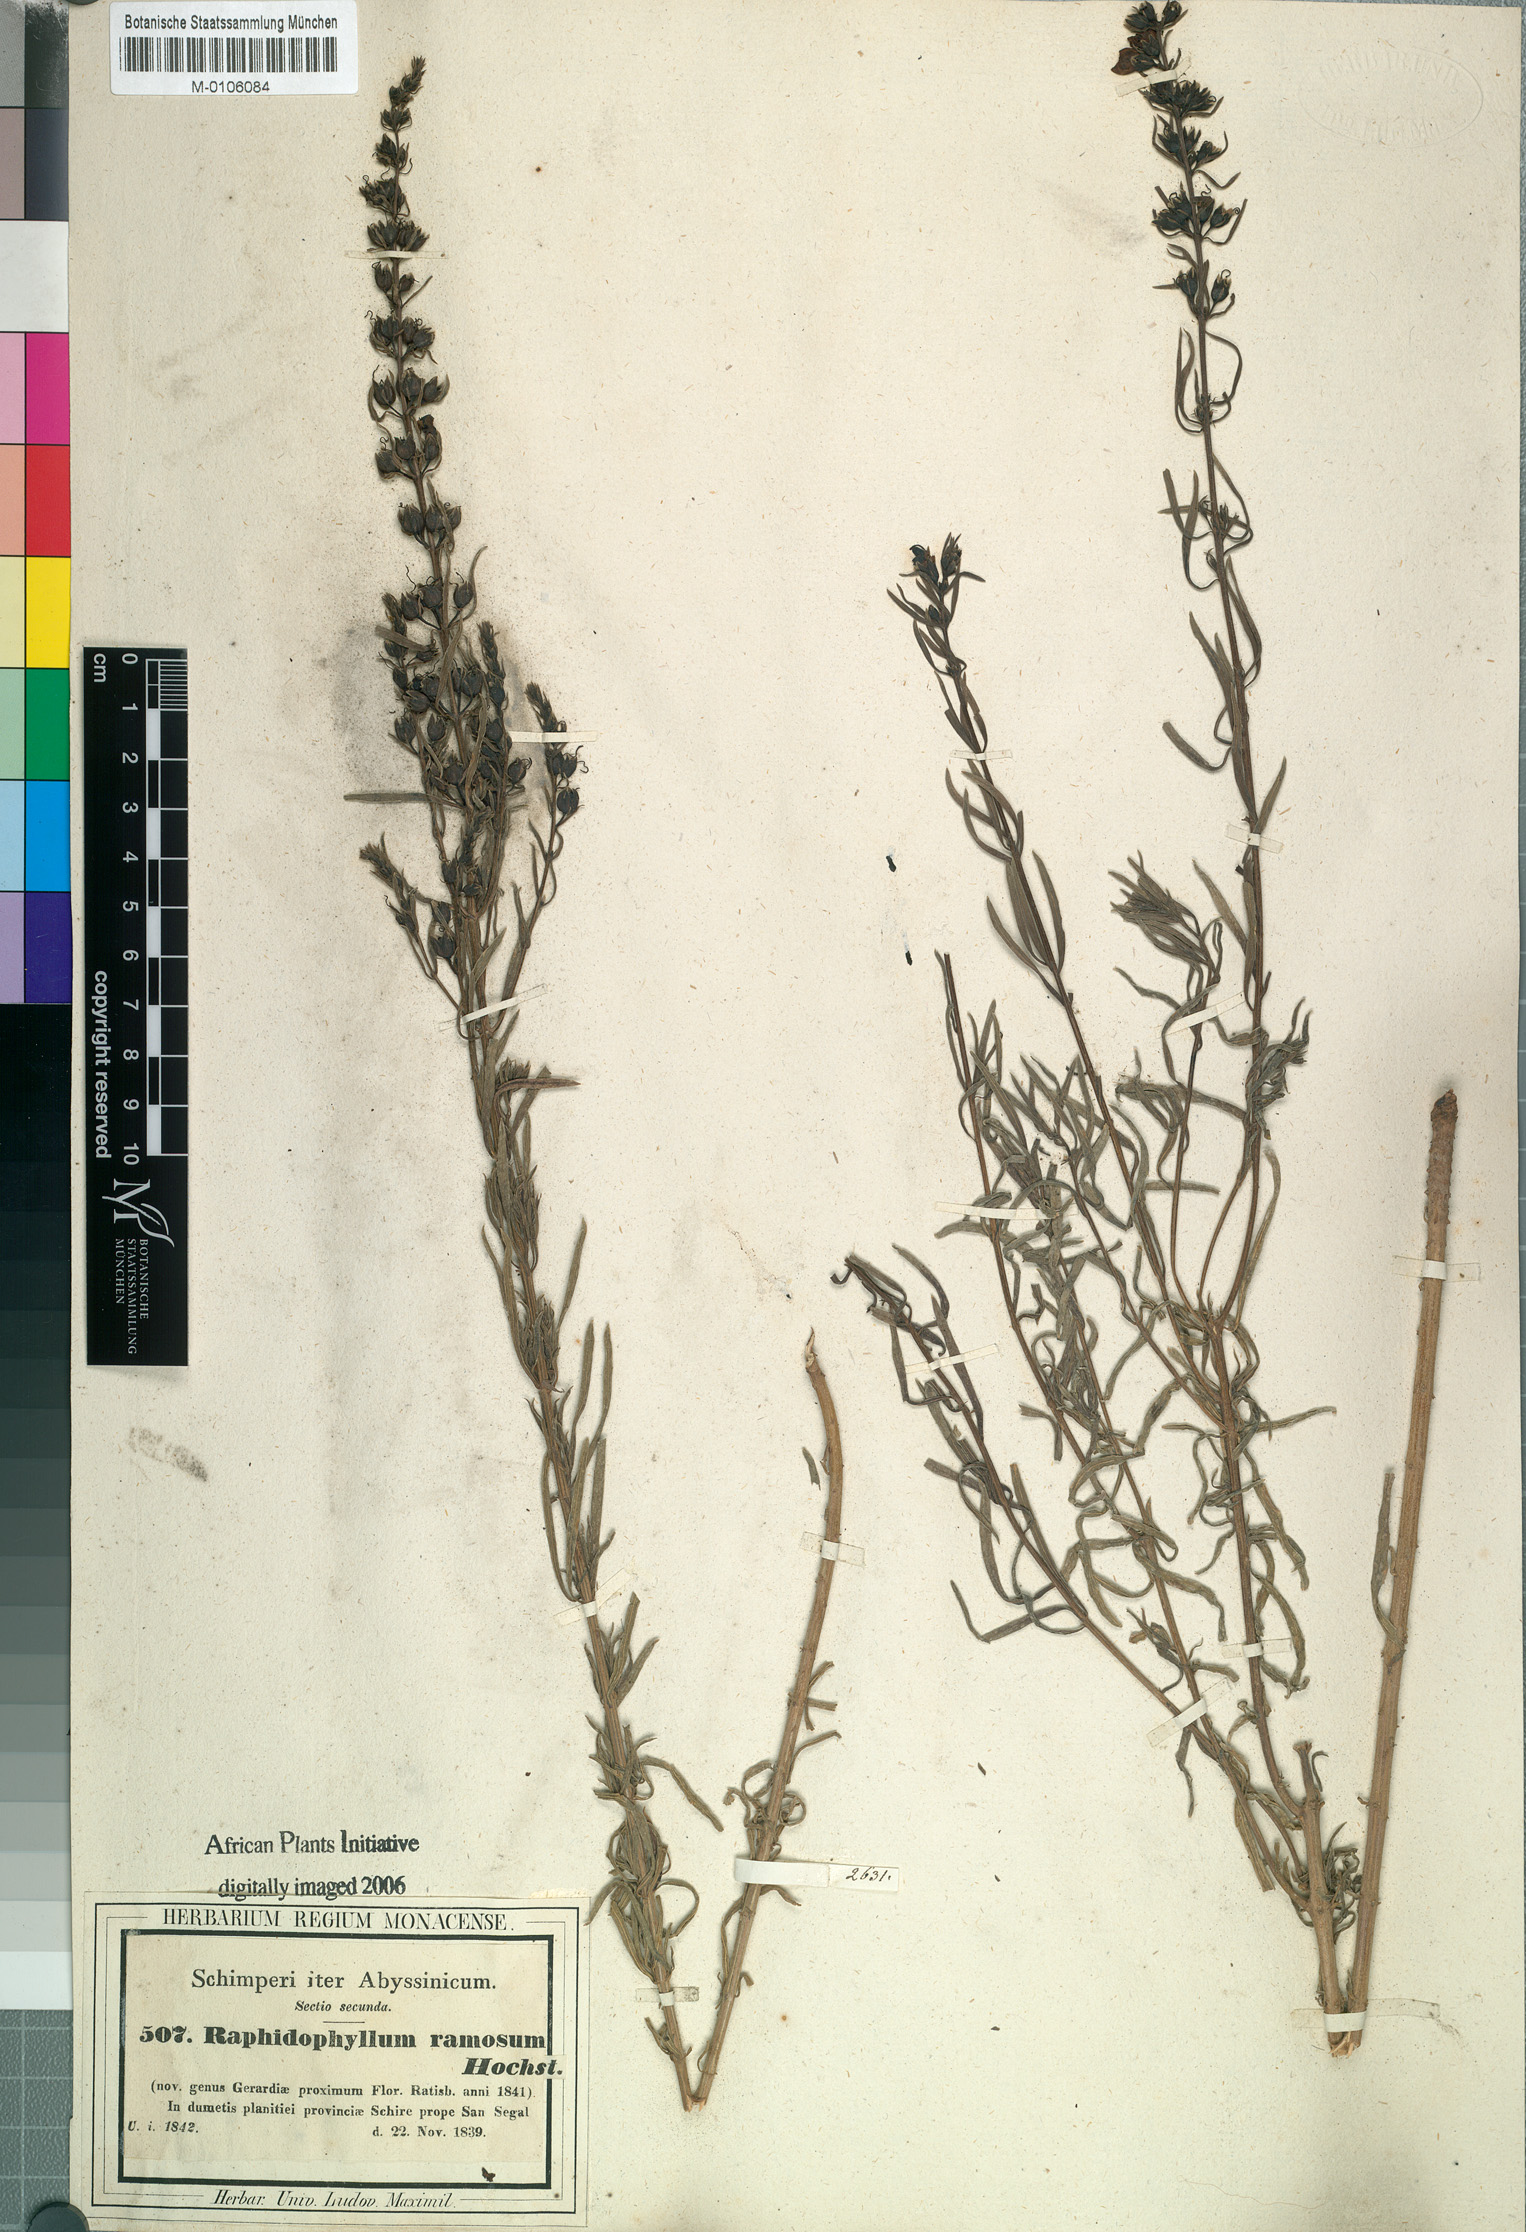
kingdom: Plantae
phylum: Tracheophyta
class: Magnoliopsida
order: Lamiales
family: Orobanchaceae
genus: Sopubia
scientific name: Sopubia ramosa
